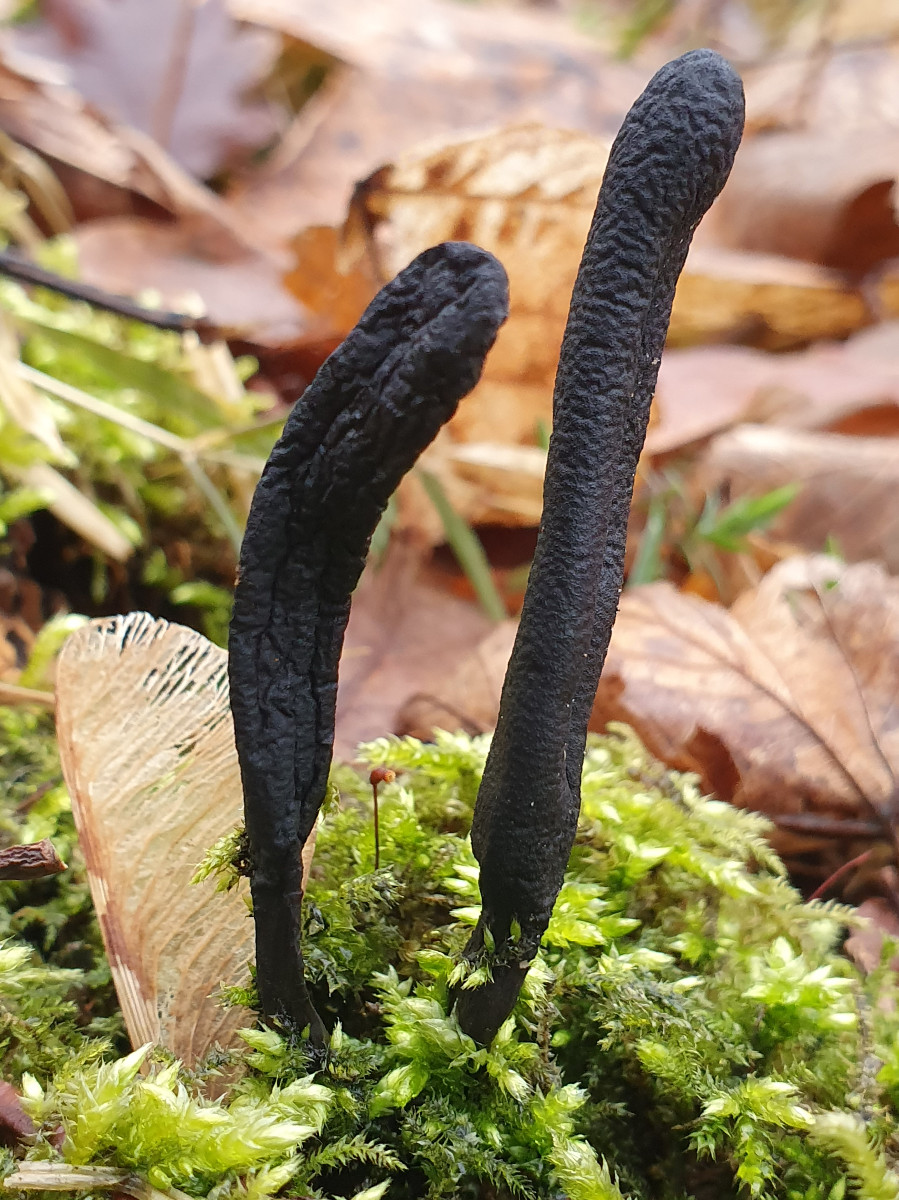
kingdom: Fungi
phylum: Ascomycota
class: Sordariomycetes
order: Xylariales
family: Xylariaceae
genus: Xylaria
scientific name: Xylaria longipes
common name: slank stødsvamp
